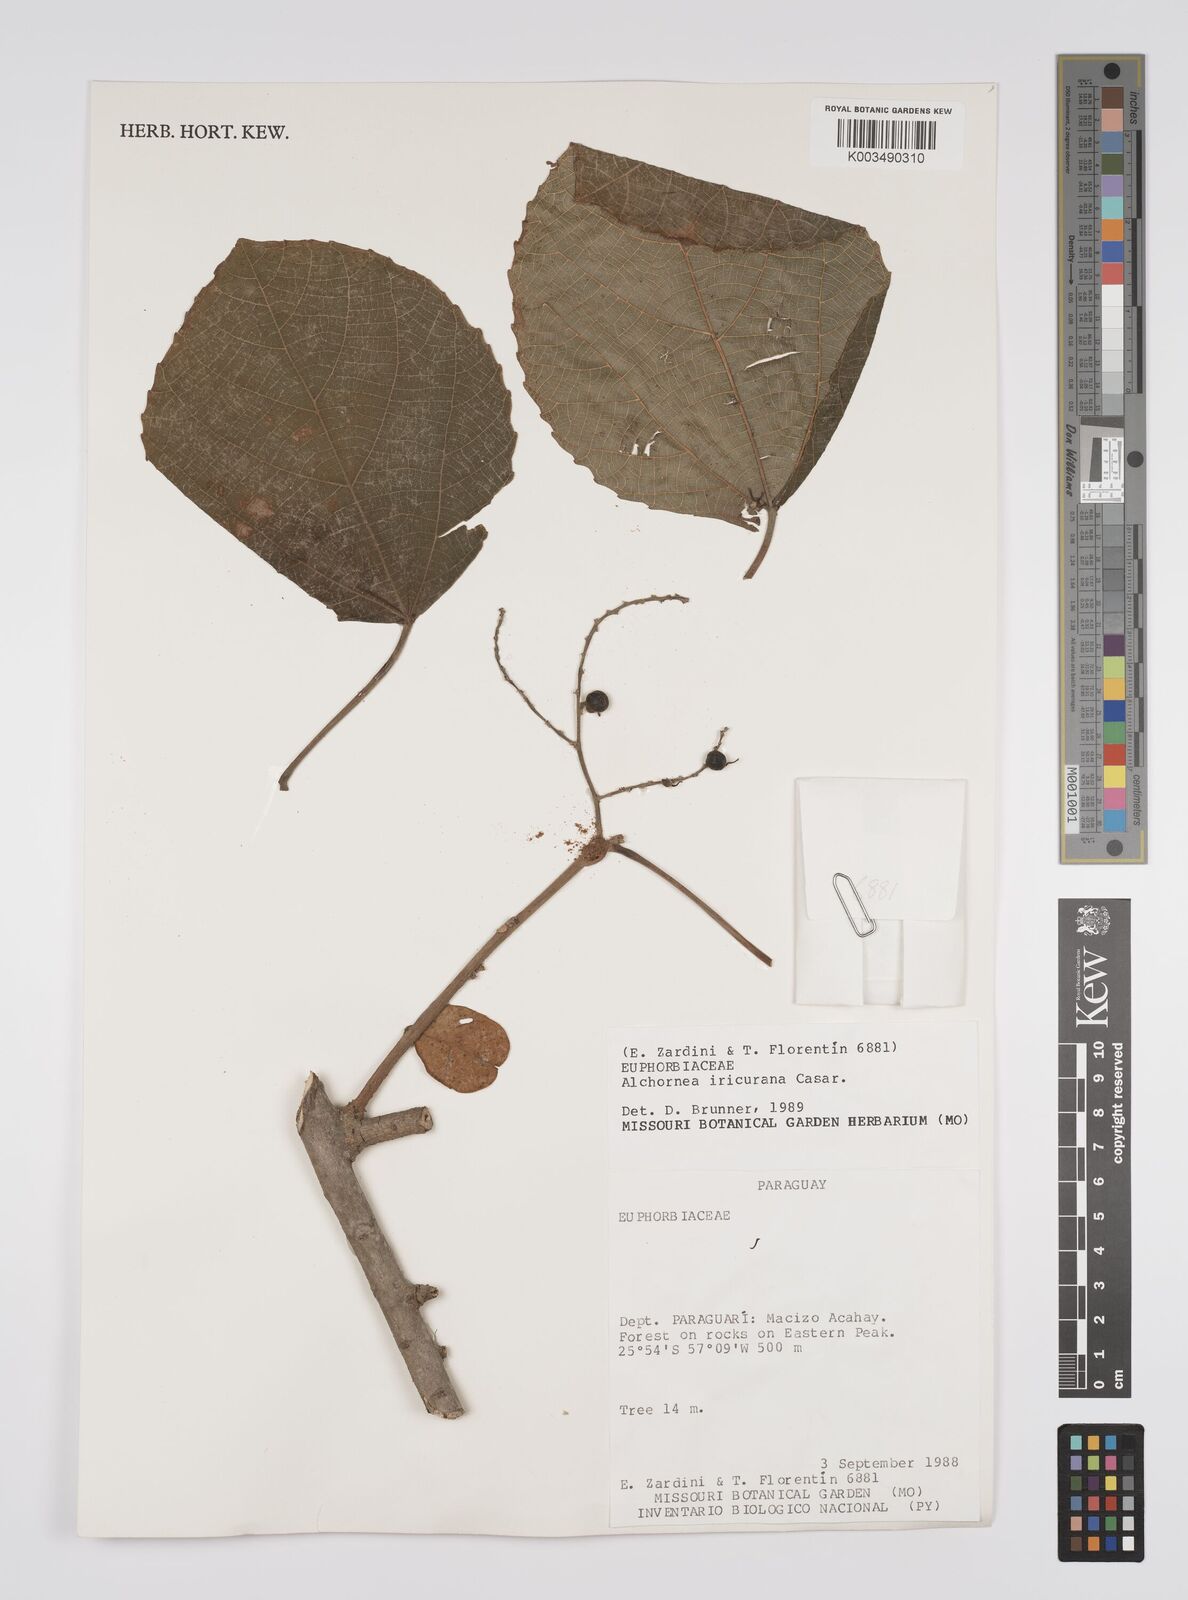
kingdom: Plantae
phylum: Tracheophyta
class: Magnoliopsida
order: Malpighiales
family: Euphorbiaceae
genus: Alchornea
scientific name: Alchornea glandulosa
